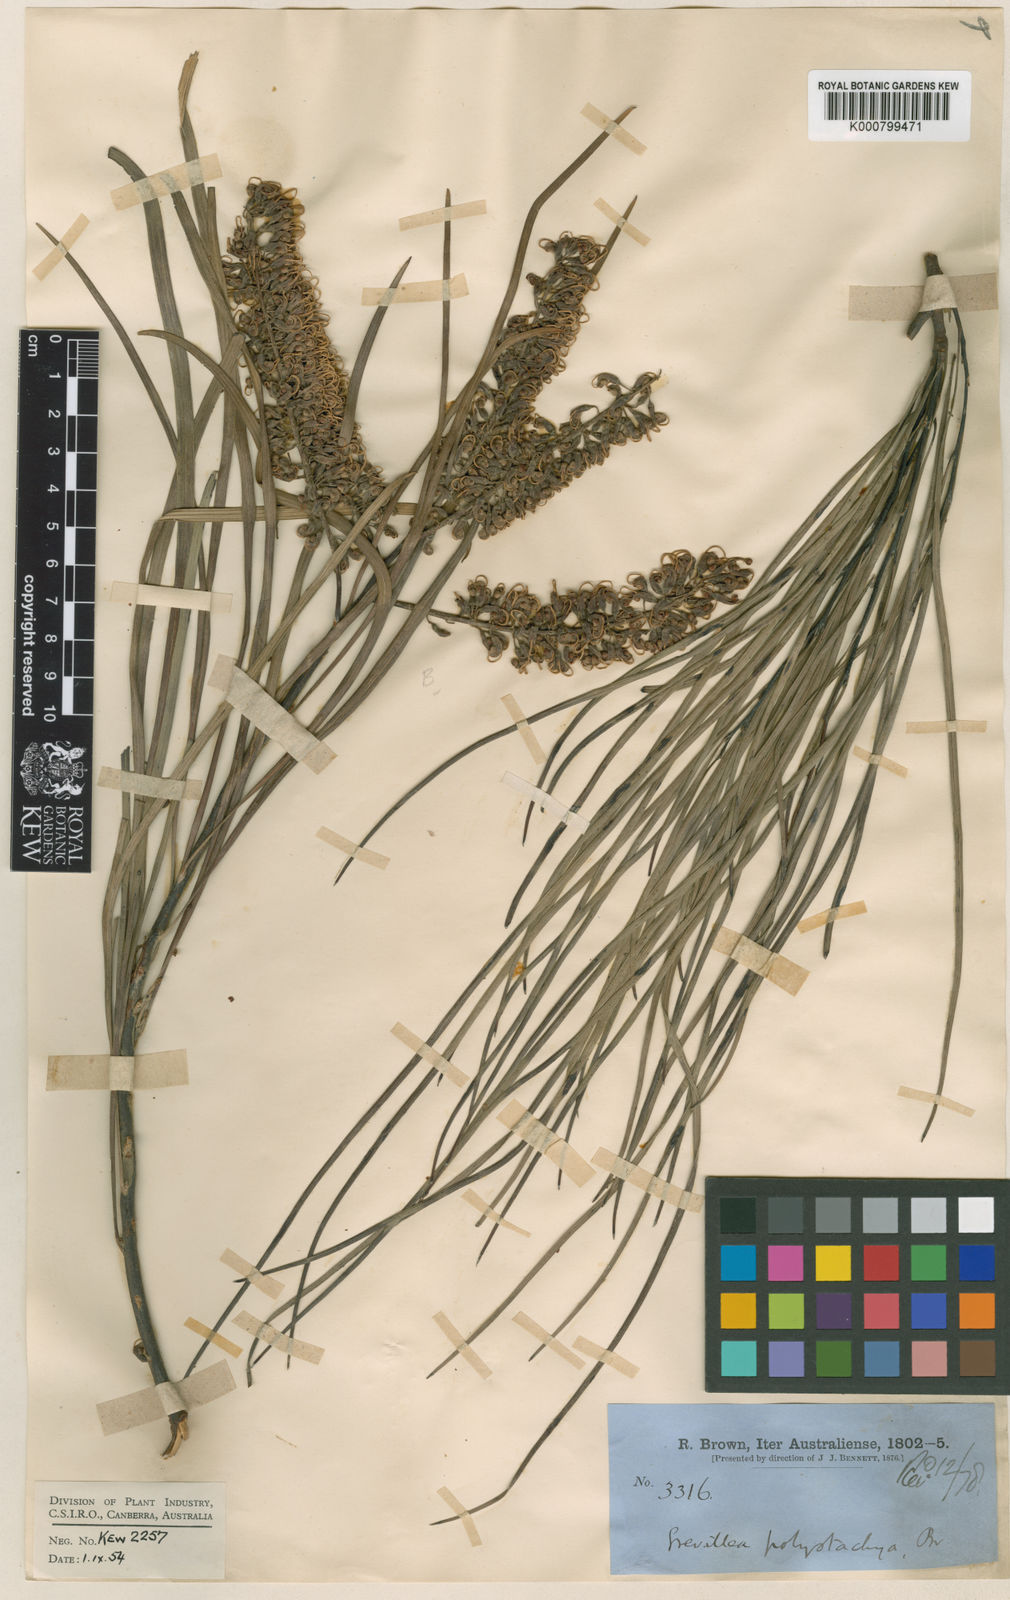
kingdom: Plantae
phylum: Tracheophyta
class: Magnoliopsida
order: Proteales
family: Proteaceae
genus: Grevillea
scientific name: Grevillea parallela
